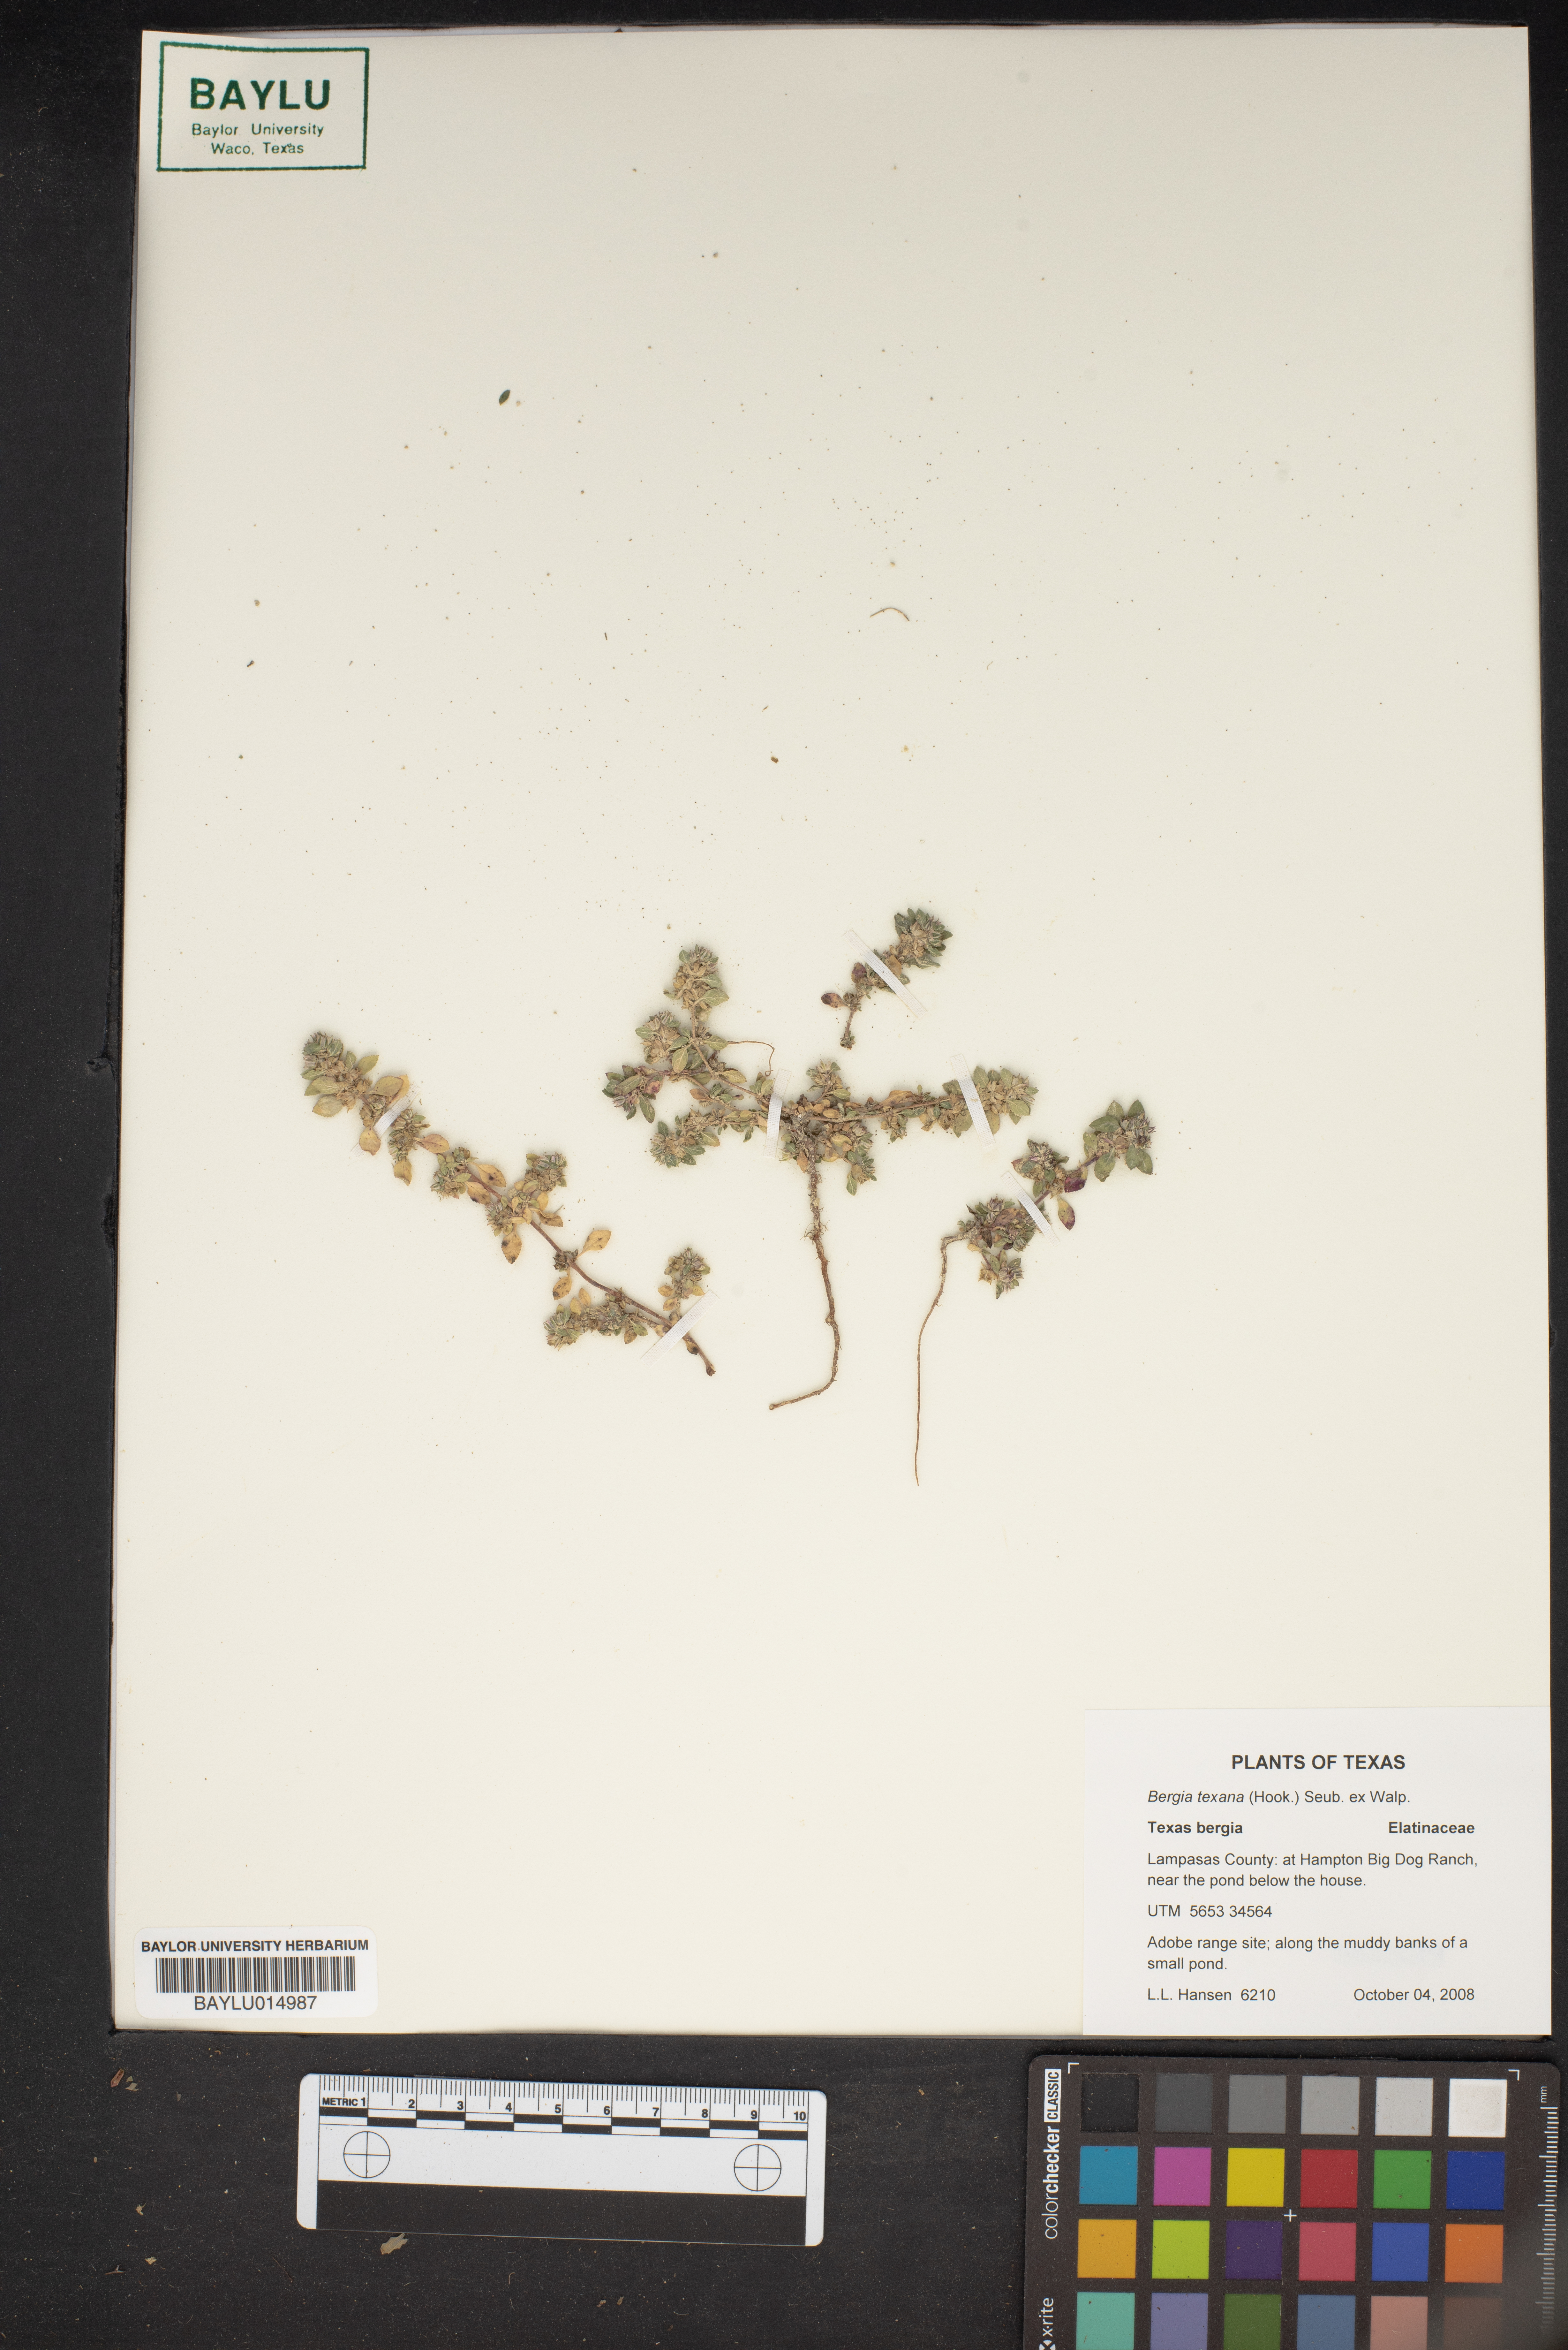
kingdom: Plantae
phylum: Tracheophyta
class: Magnoliopsida
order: Malpighiales
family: Elatinaceae
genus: Bergia
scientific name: Bergia texana
